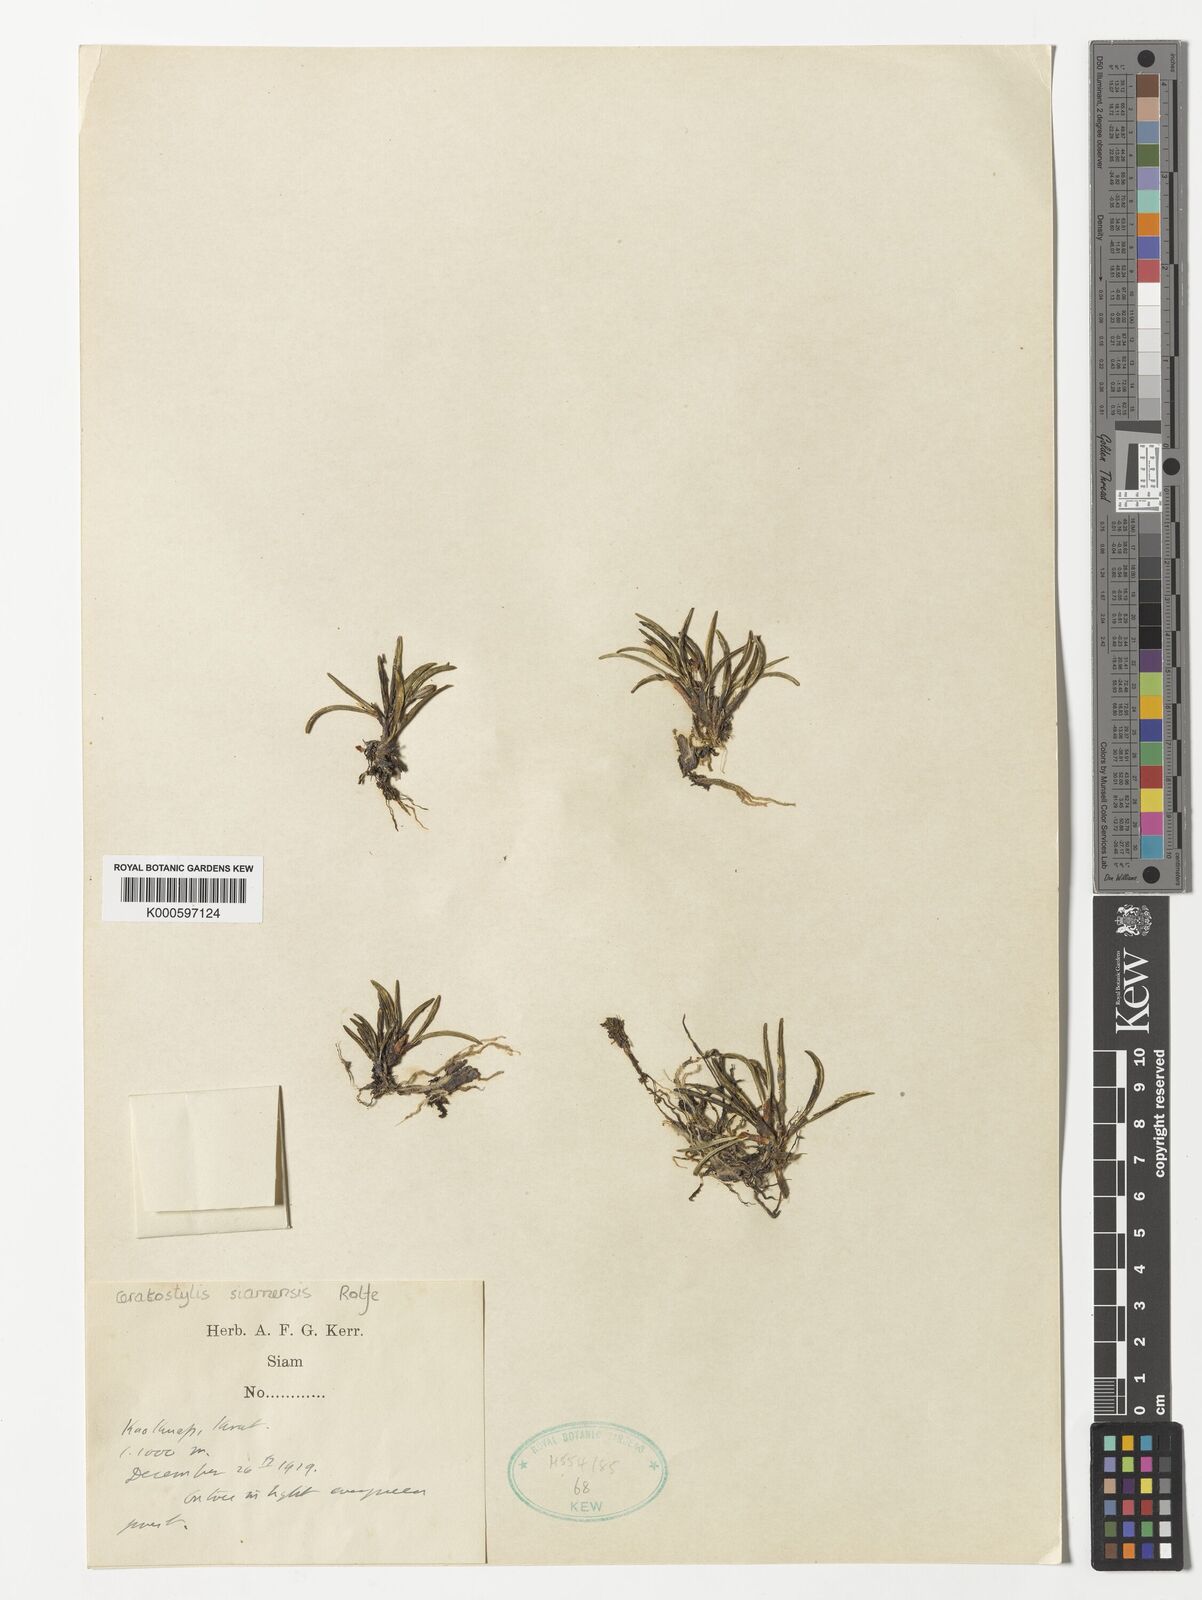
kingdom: Plantae
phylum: Tracheophyta
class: Liliopsida
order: Asparagales
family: Orchidaceae
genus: Ceratostylis
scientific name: Ceratostylis siamensis
